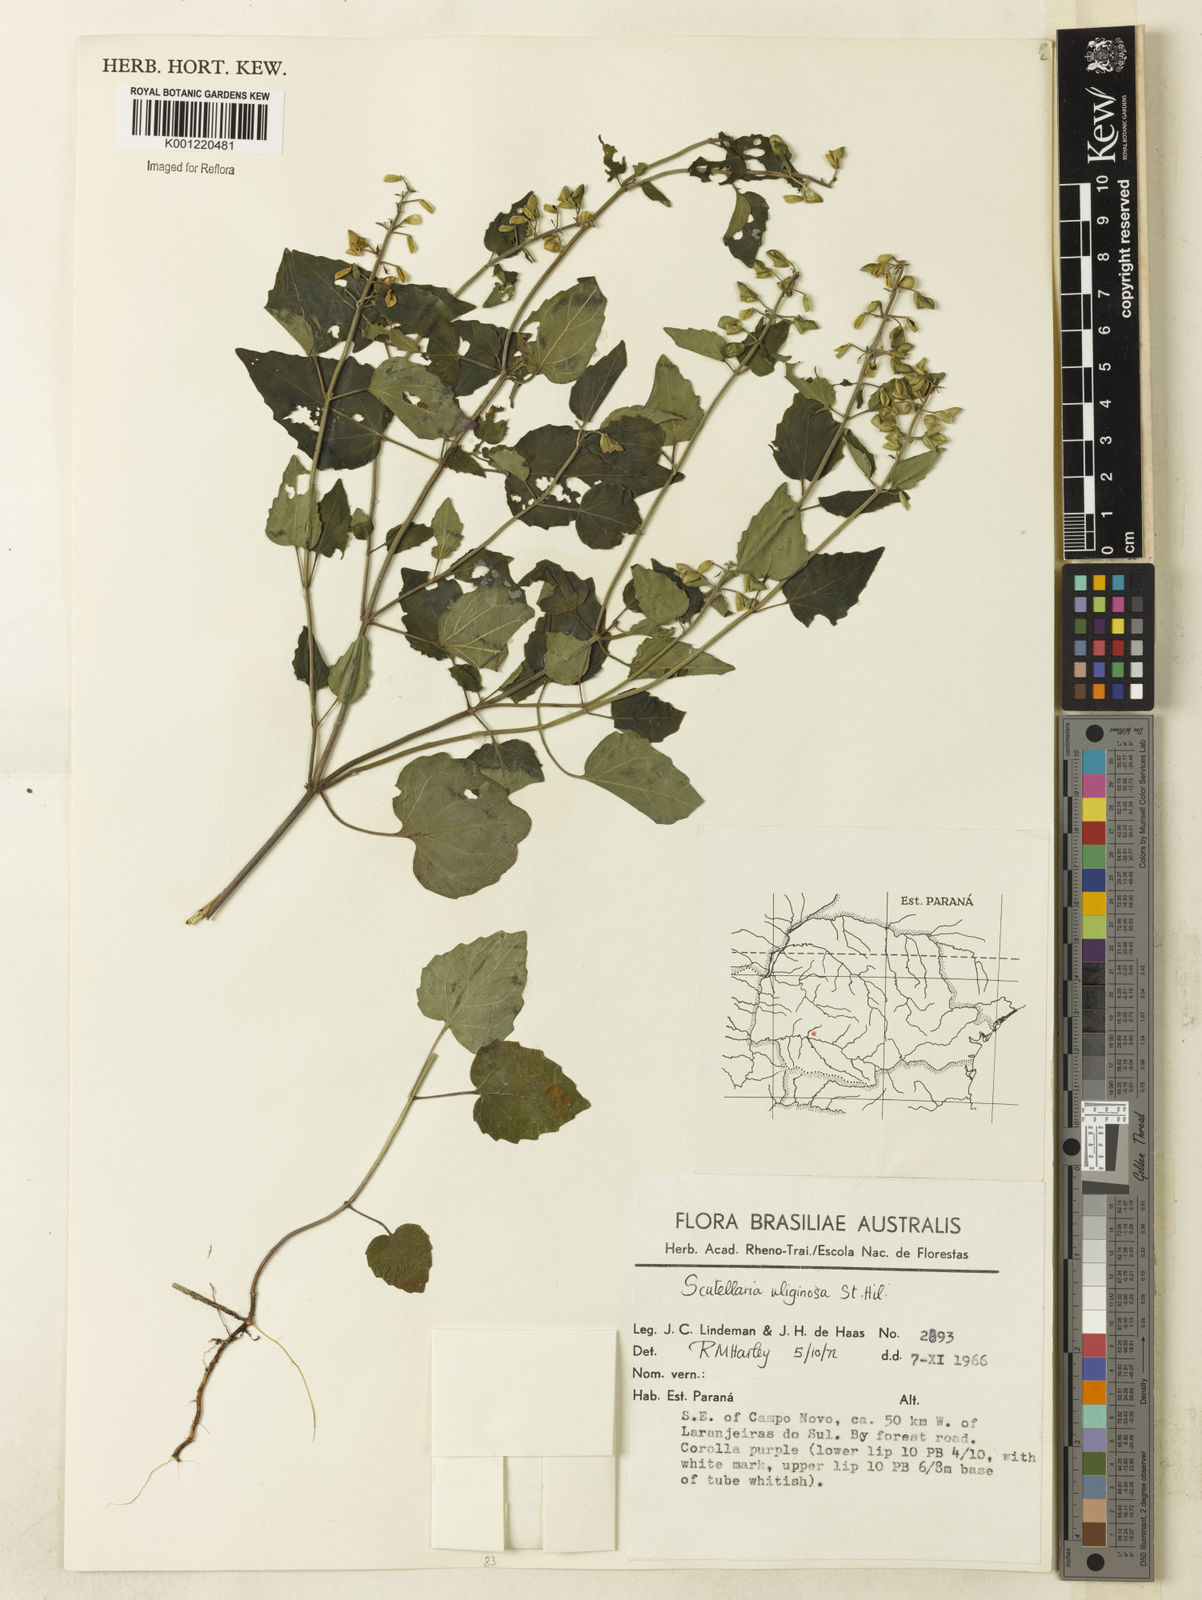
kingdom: Plantae
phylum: Tracheophyta
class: Magnoliopsida
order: Lamiales
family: Lamiaceae
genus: Scutellaria
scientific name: Scutellaria uliginosa
